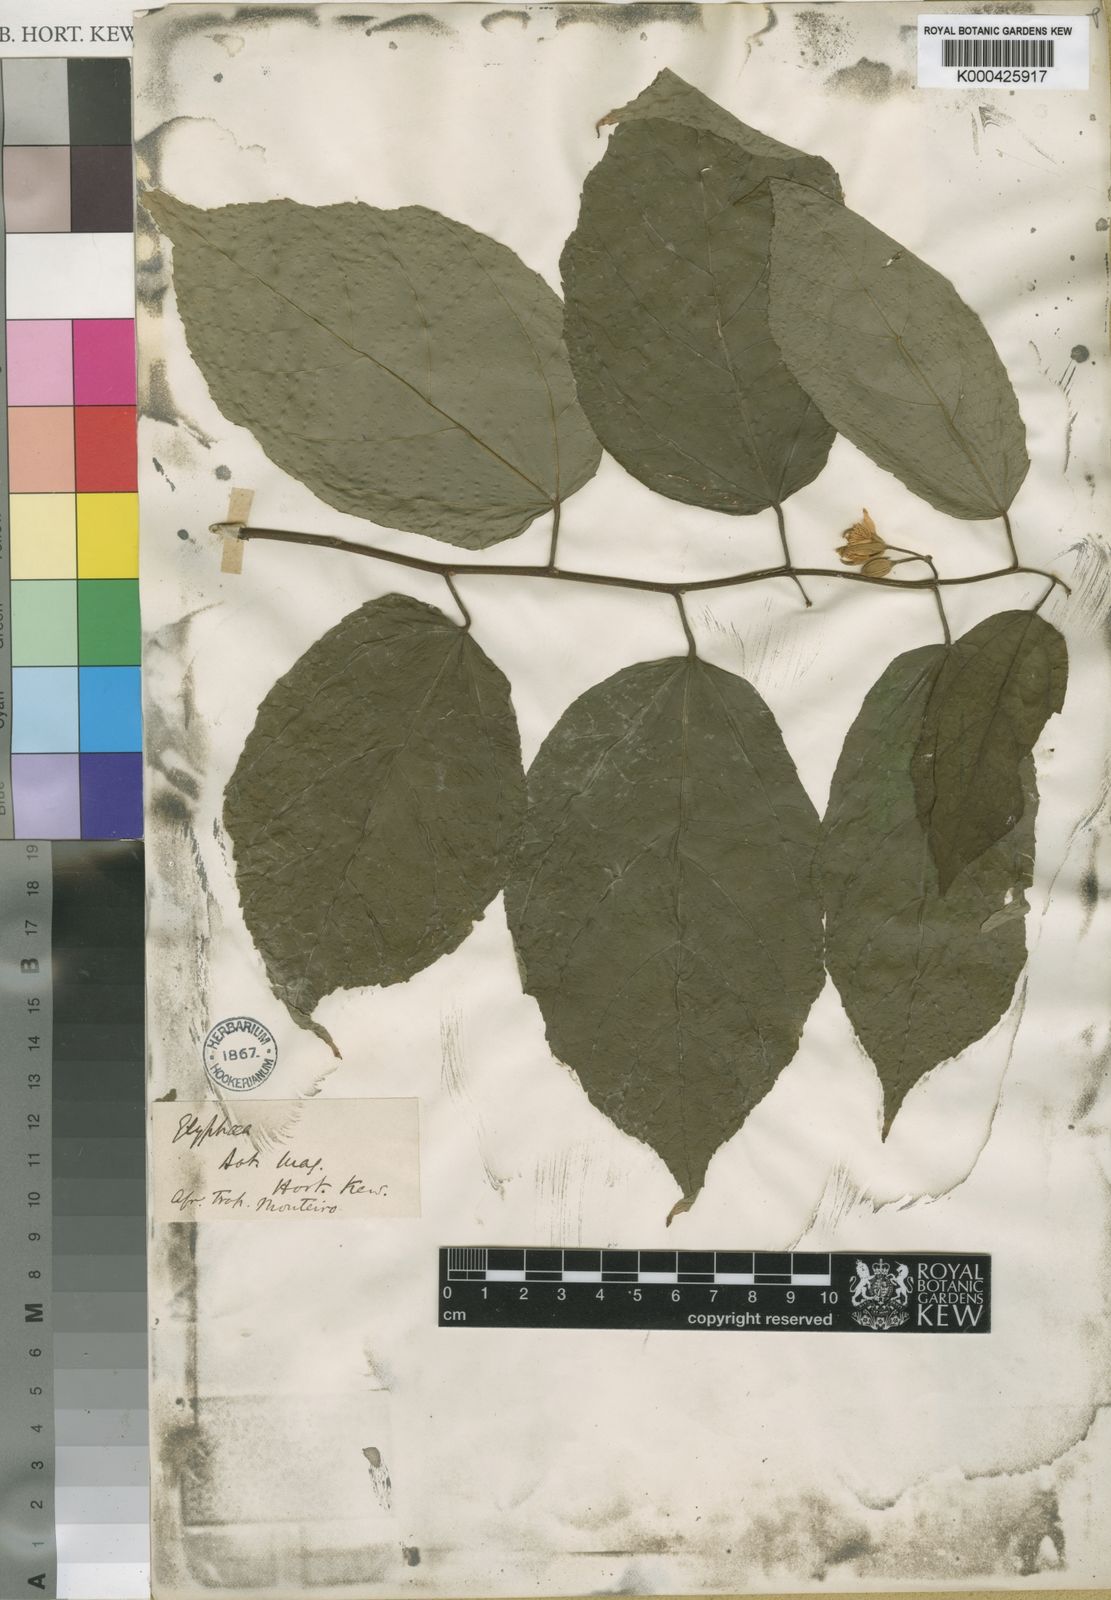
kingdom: Plantae
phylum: Tracheophyta
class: Magnoliopsida
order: Malvales
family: Malvaceae
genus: Glyphaea
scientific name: Glyphaea brevis
